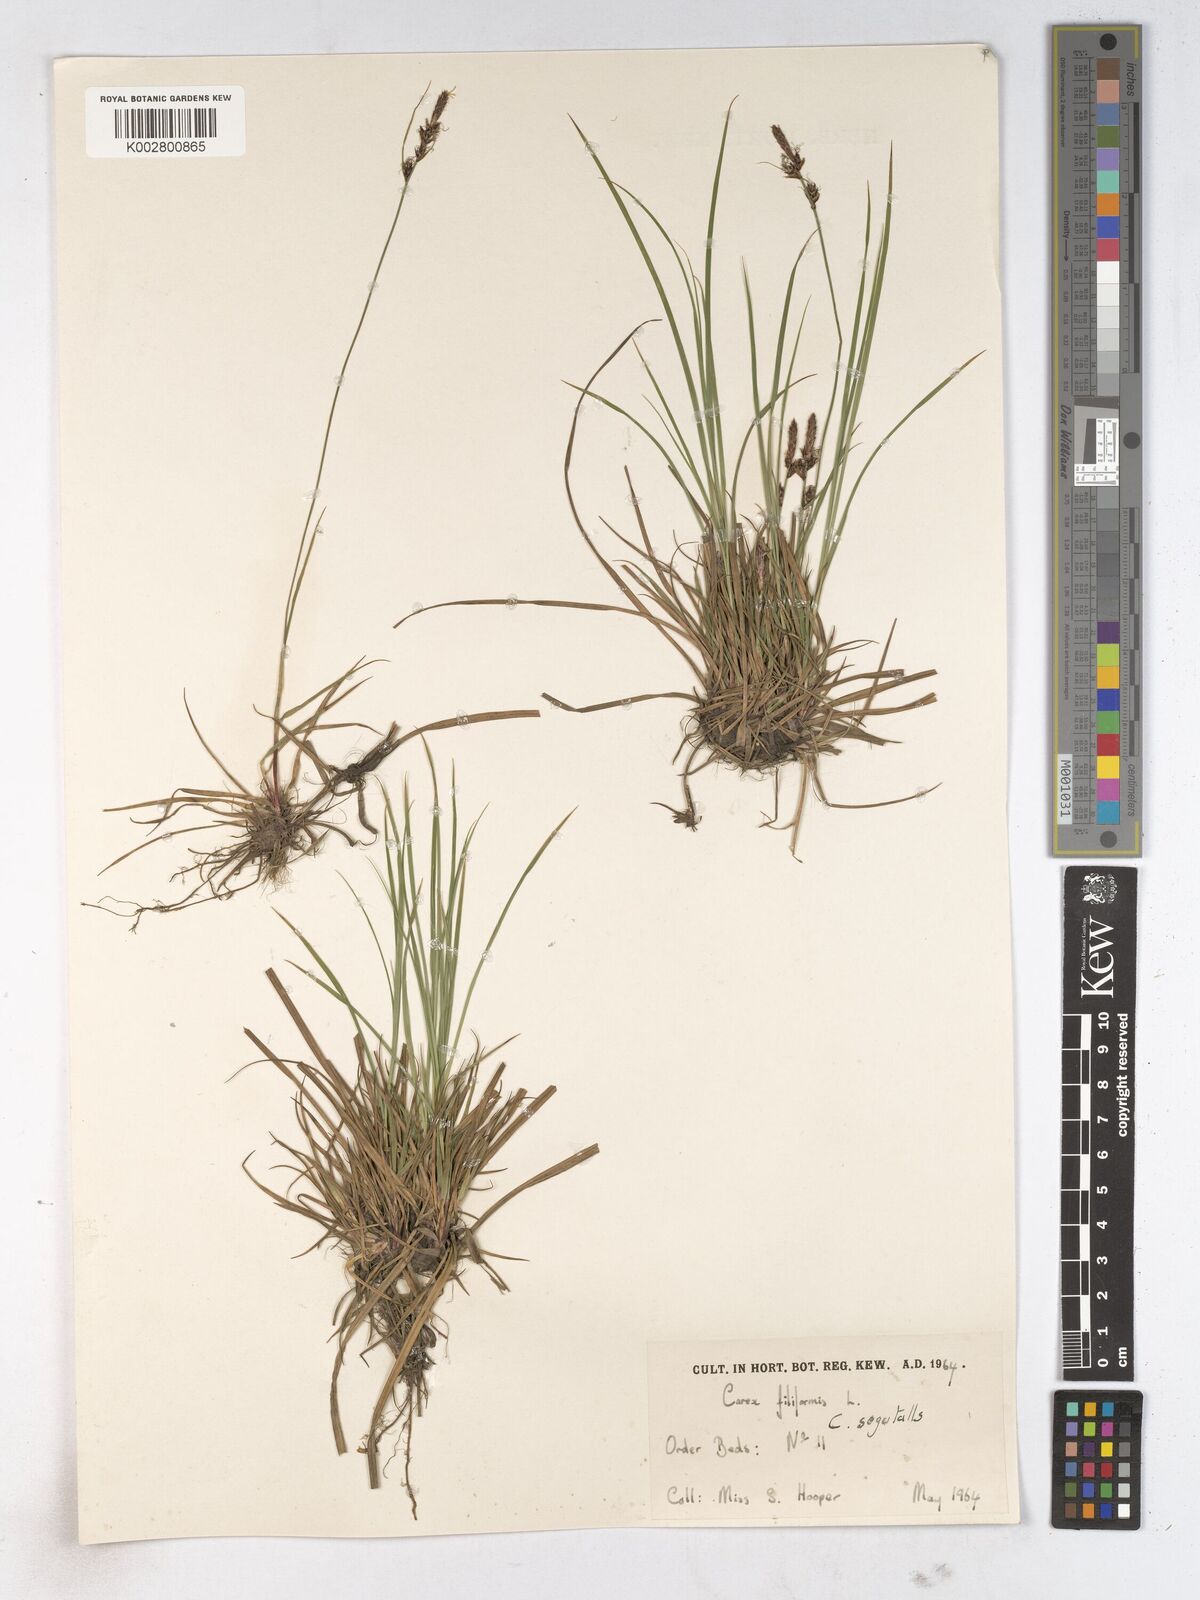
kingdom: Plantae
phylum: Tracheophyta
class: Liliopsida
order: Poales
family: Cyperaceae
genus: Carex
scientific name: Carex montana
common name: Soft-leaved sedge
